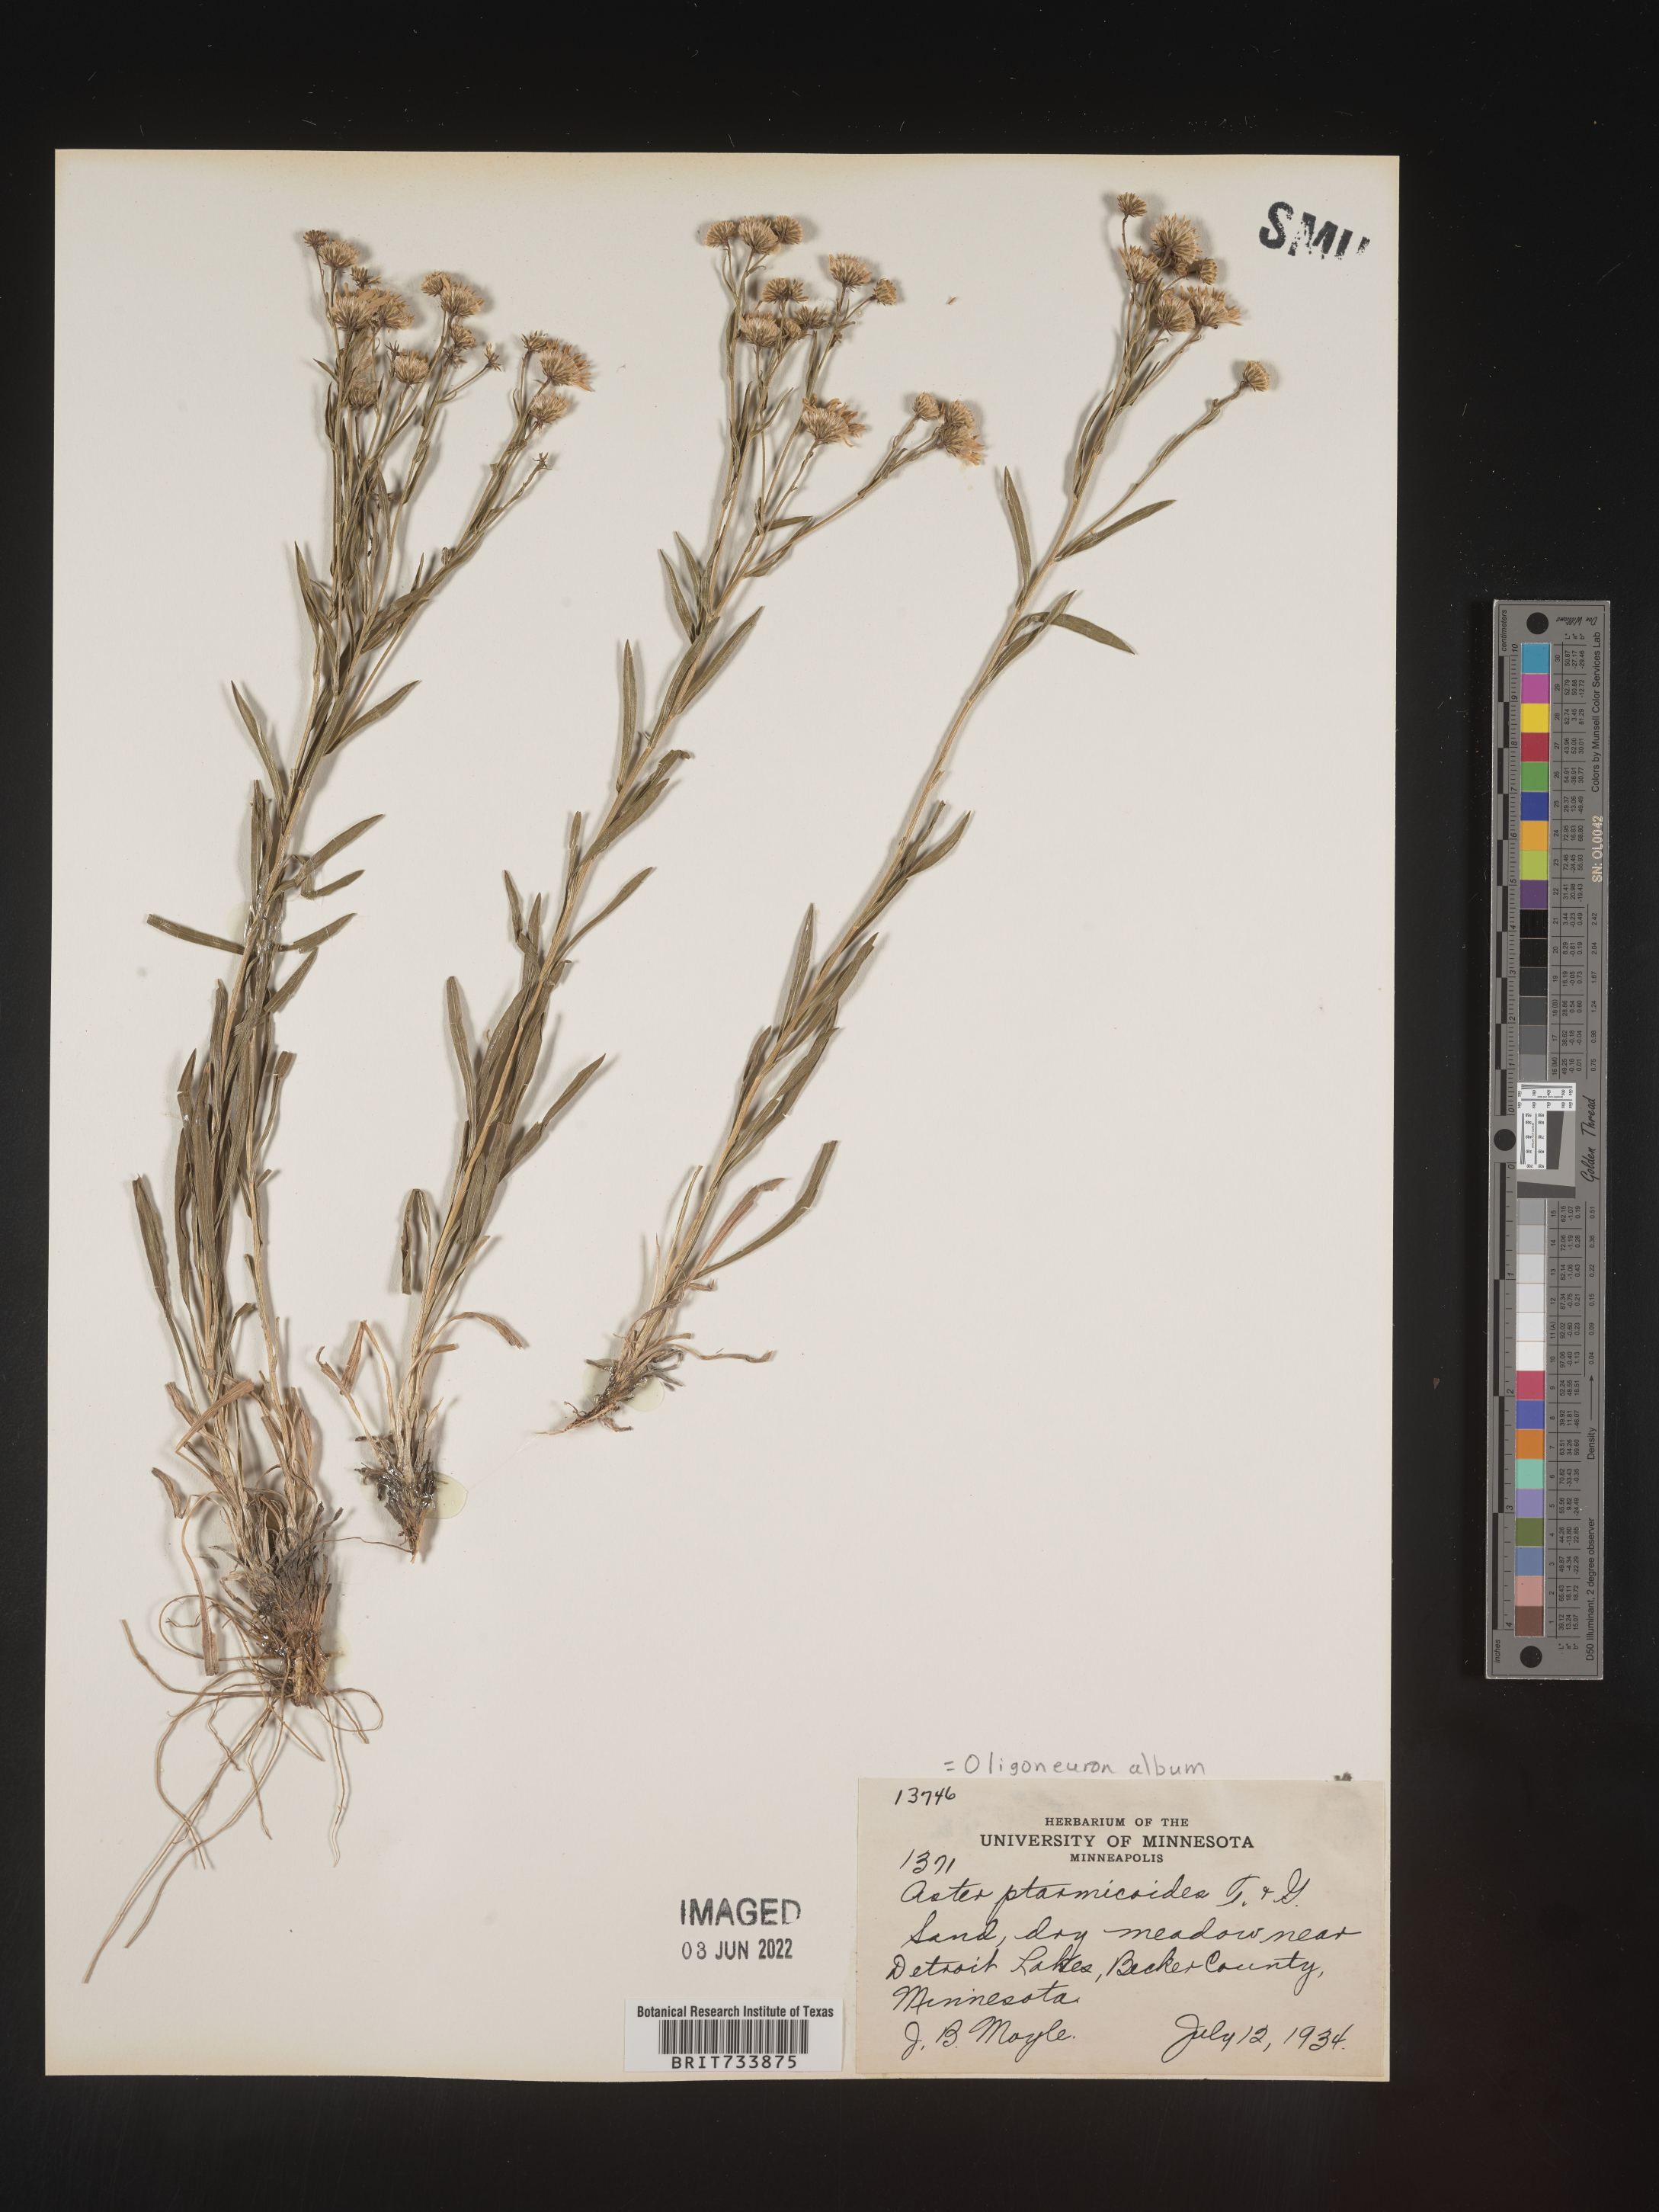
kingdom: Plantae
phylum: Tracheophyta
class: Magnoliopsida
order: Asterales
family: Asteraceae
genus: Solidago
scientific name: Solidago ptarmicoides
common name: White flat-top goldenrod
